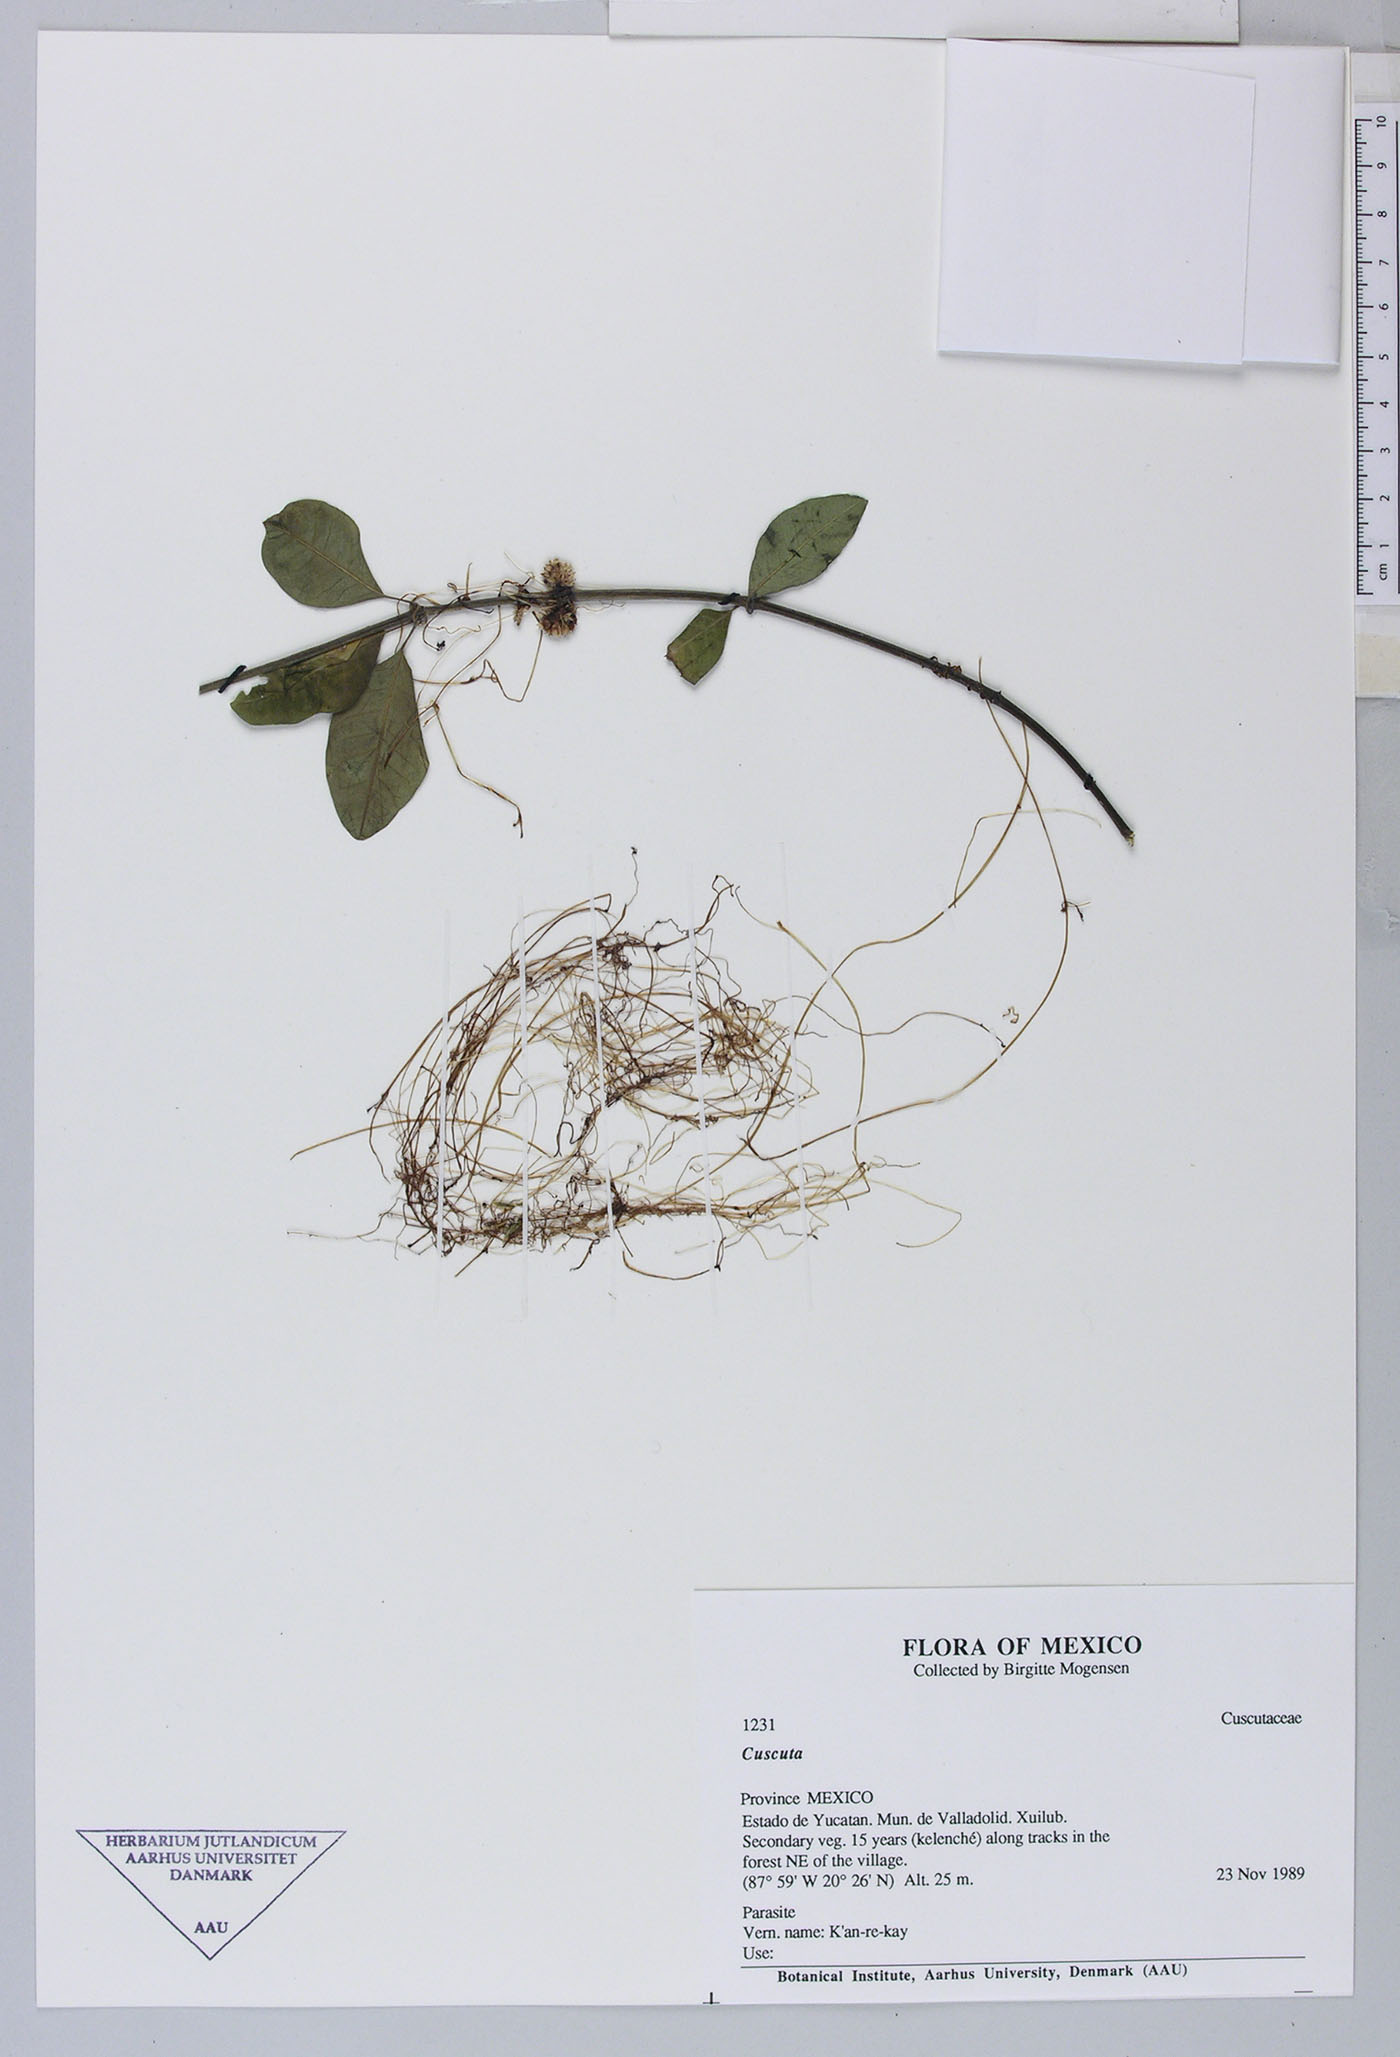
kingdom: Plantae
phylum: Tracheophyta
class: Magnoliopsida
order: Solanales
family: Convolvulaceae
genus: Cuscuta
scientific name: Cuscuta boldinghii
